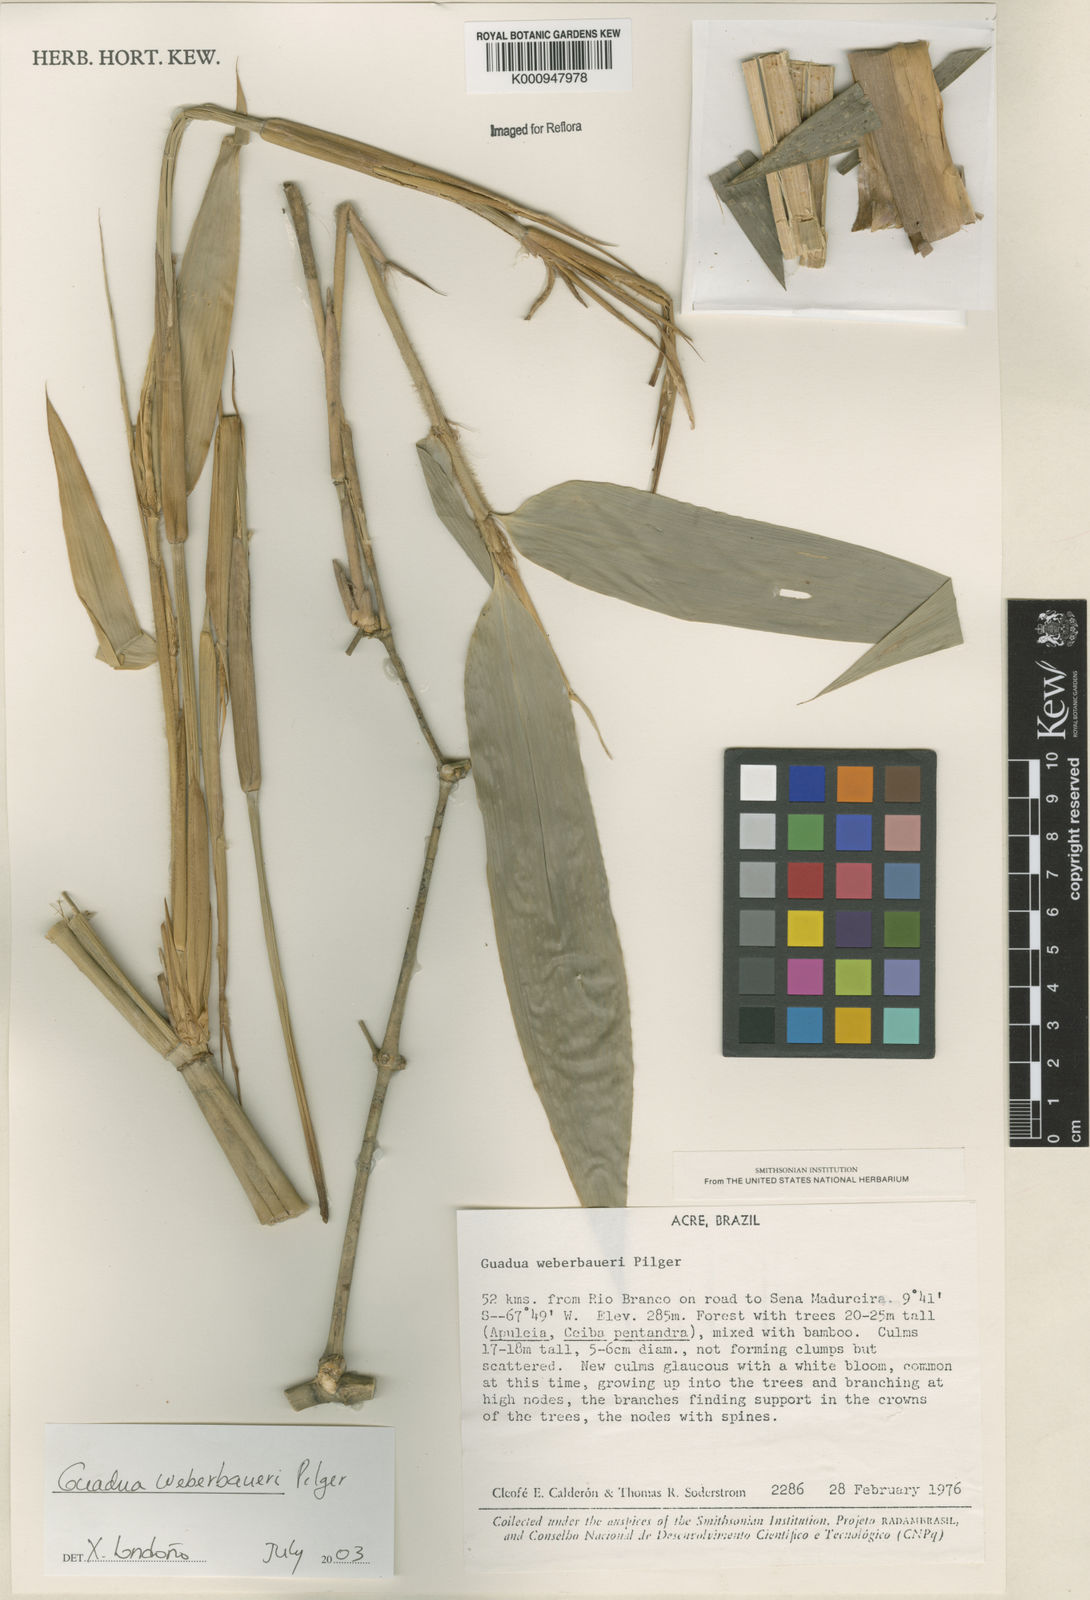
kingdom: Plantae
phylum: Tracheophyta
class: Liliopsida
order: Poales
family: Poaceae
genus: Guadua
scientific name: Guadua weberbaueri
